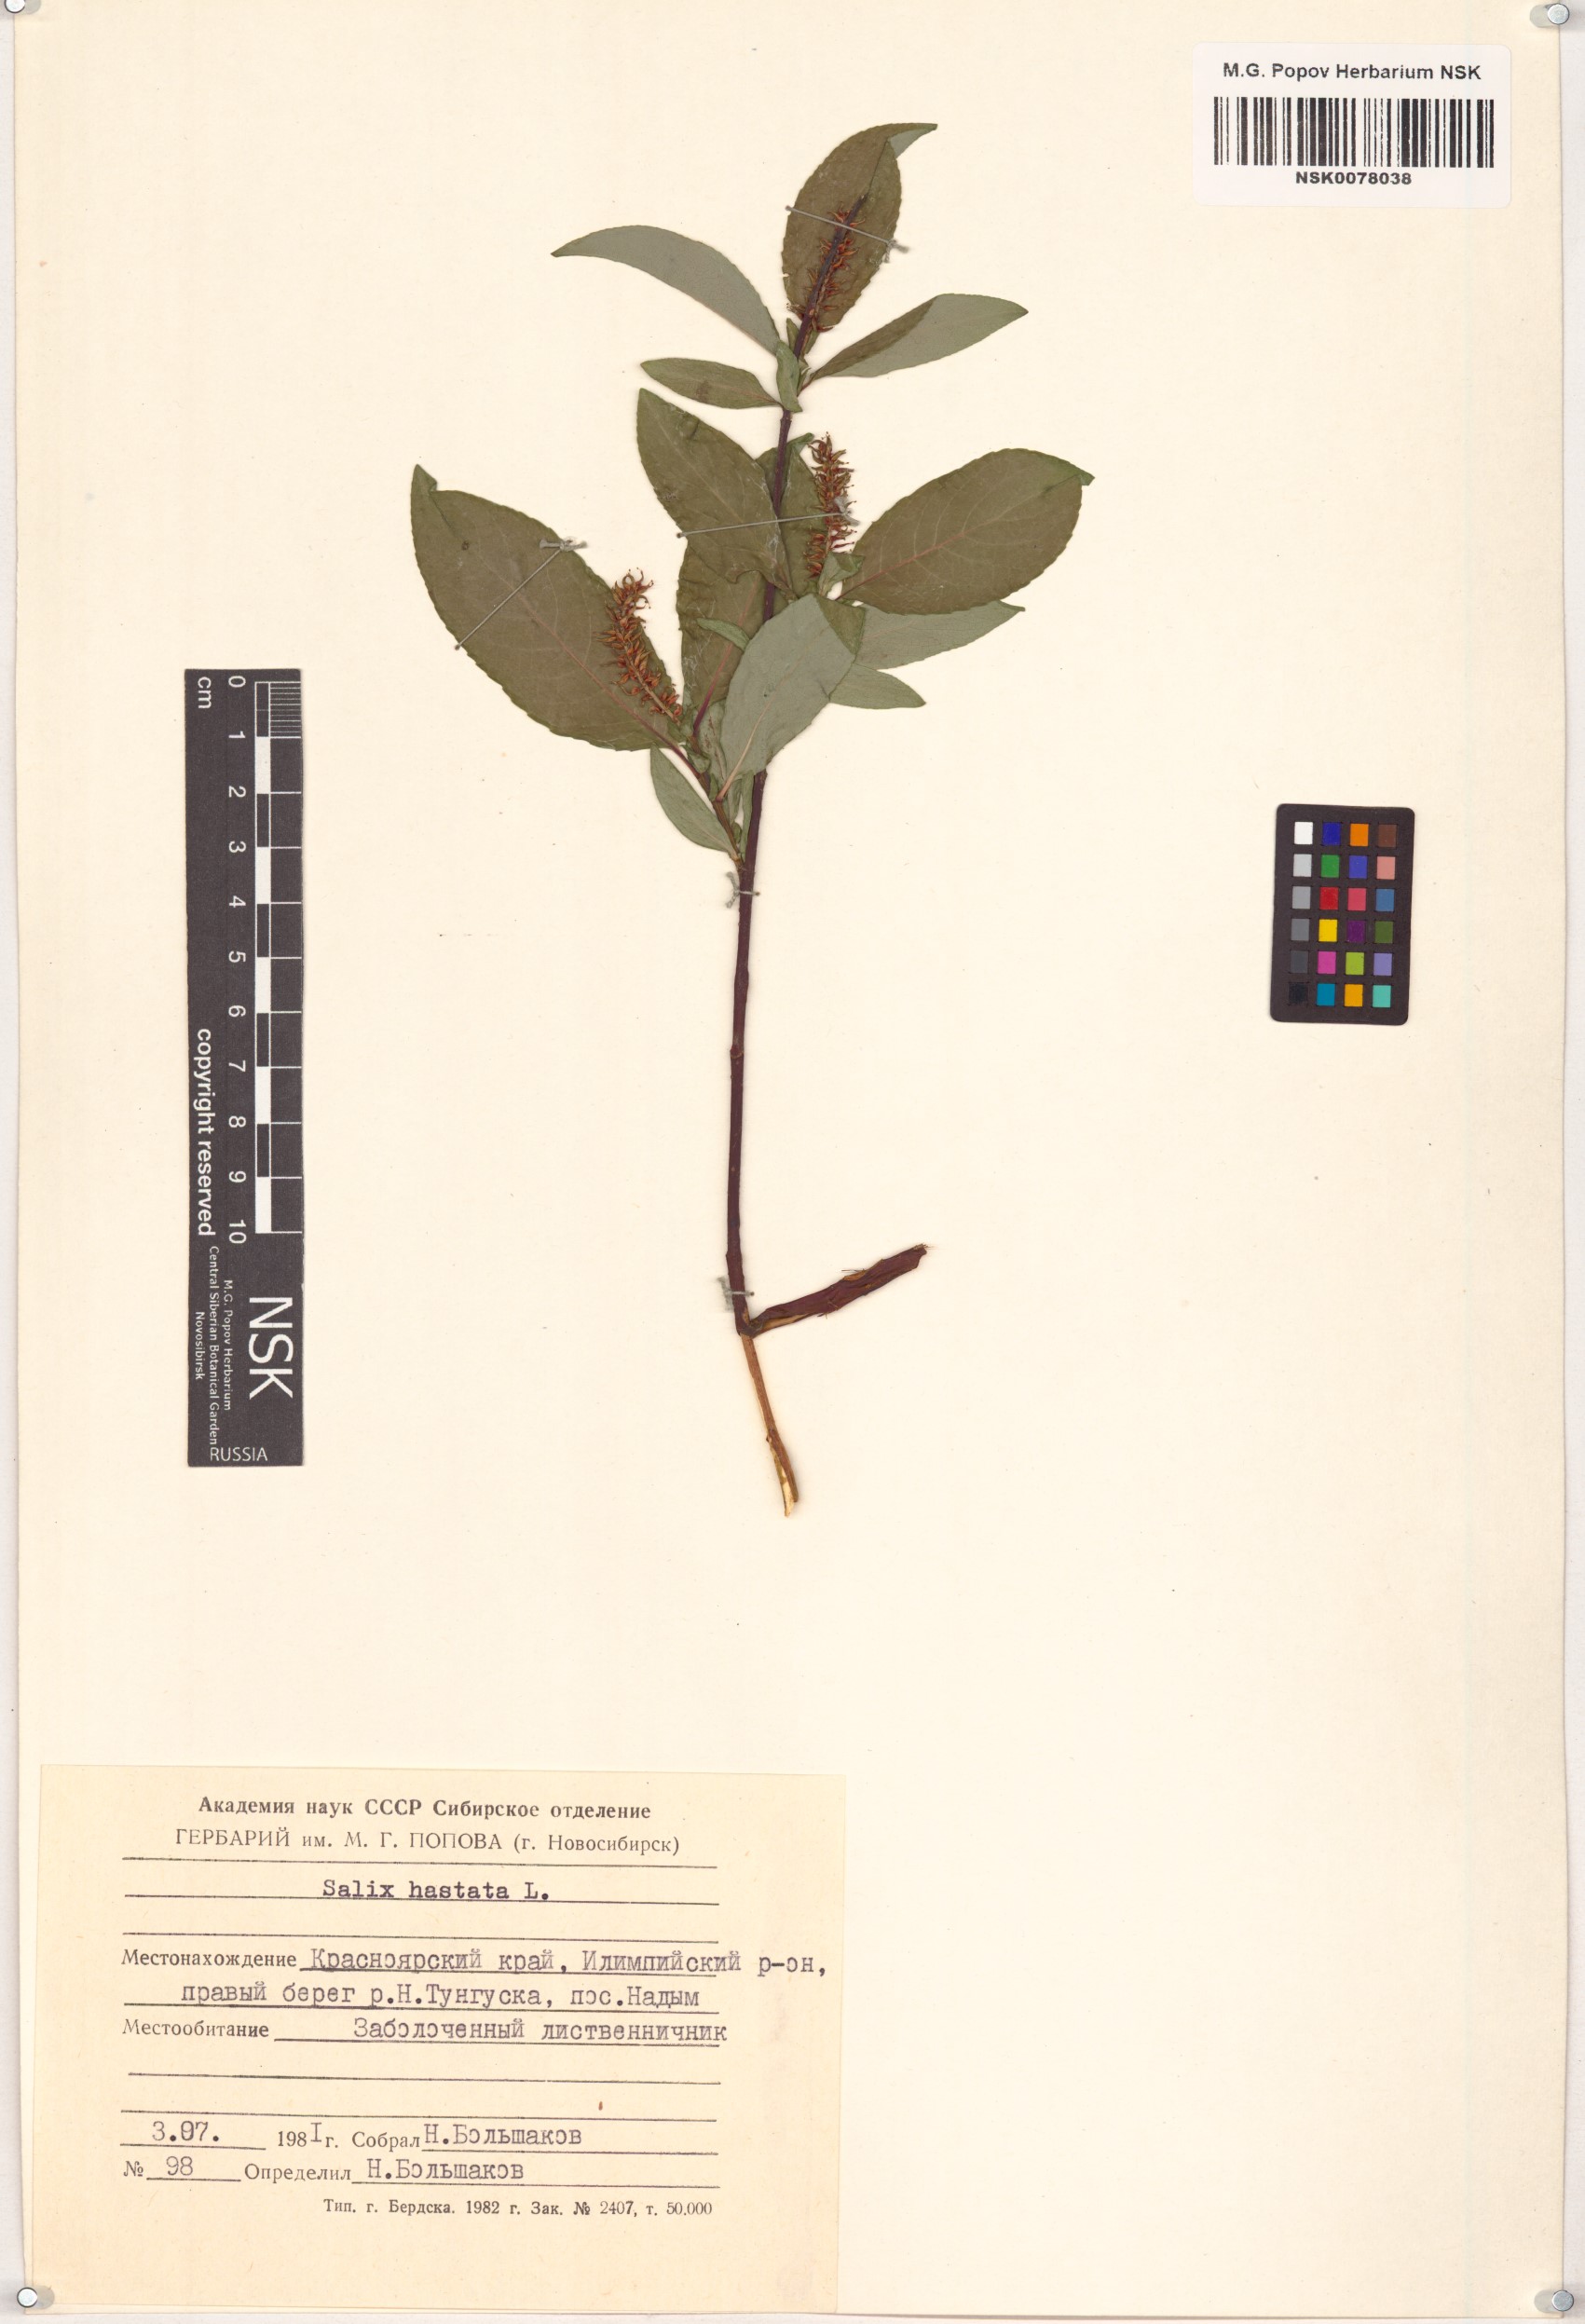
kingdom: Plantae
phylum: Tracheophyta
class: Magnoliopsida
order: Malpighiales
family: Salicaceae
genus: Salix
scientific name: Salix hastata
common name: Halberd willow
